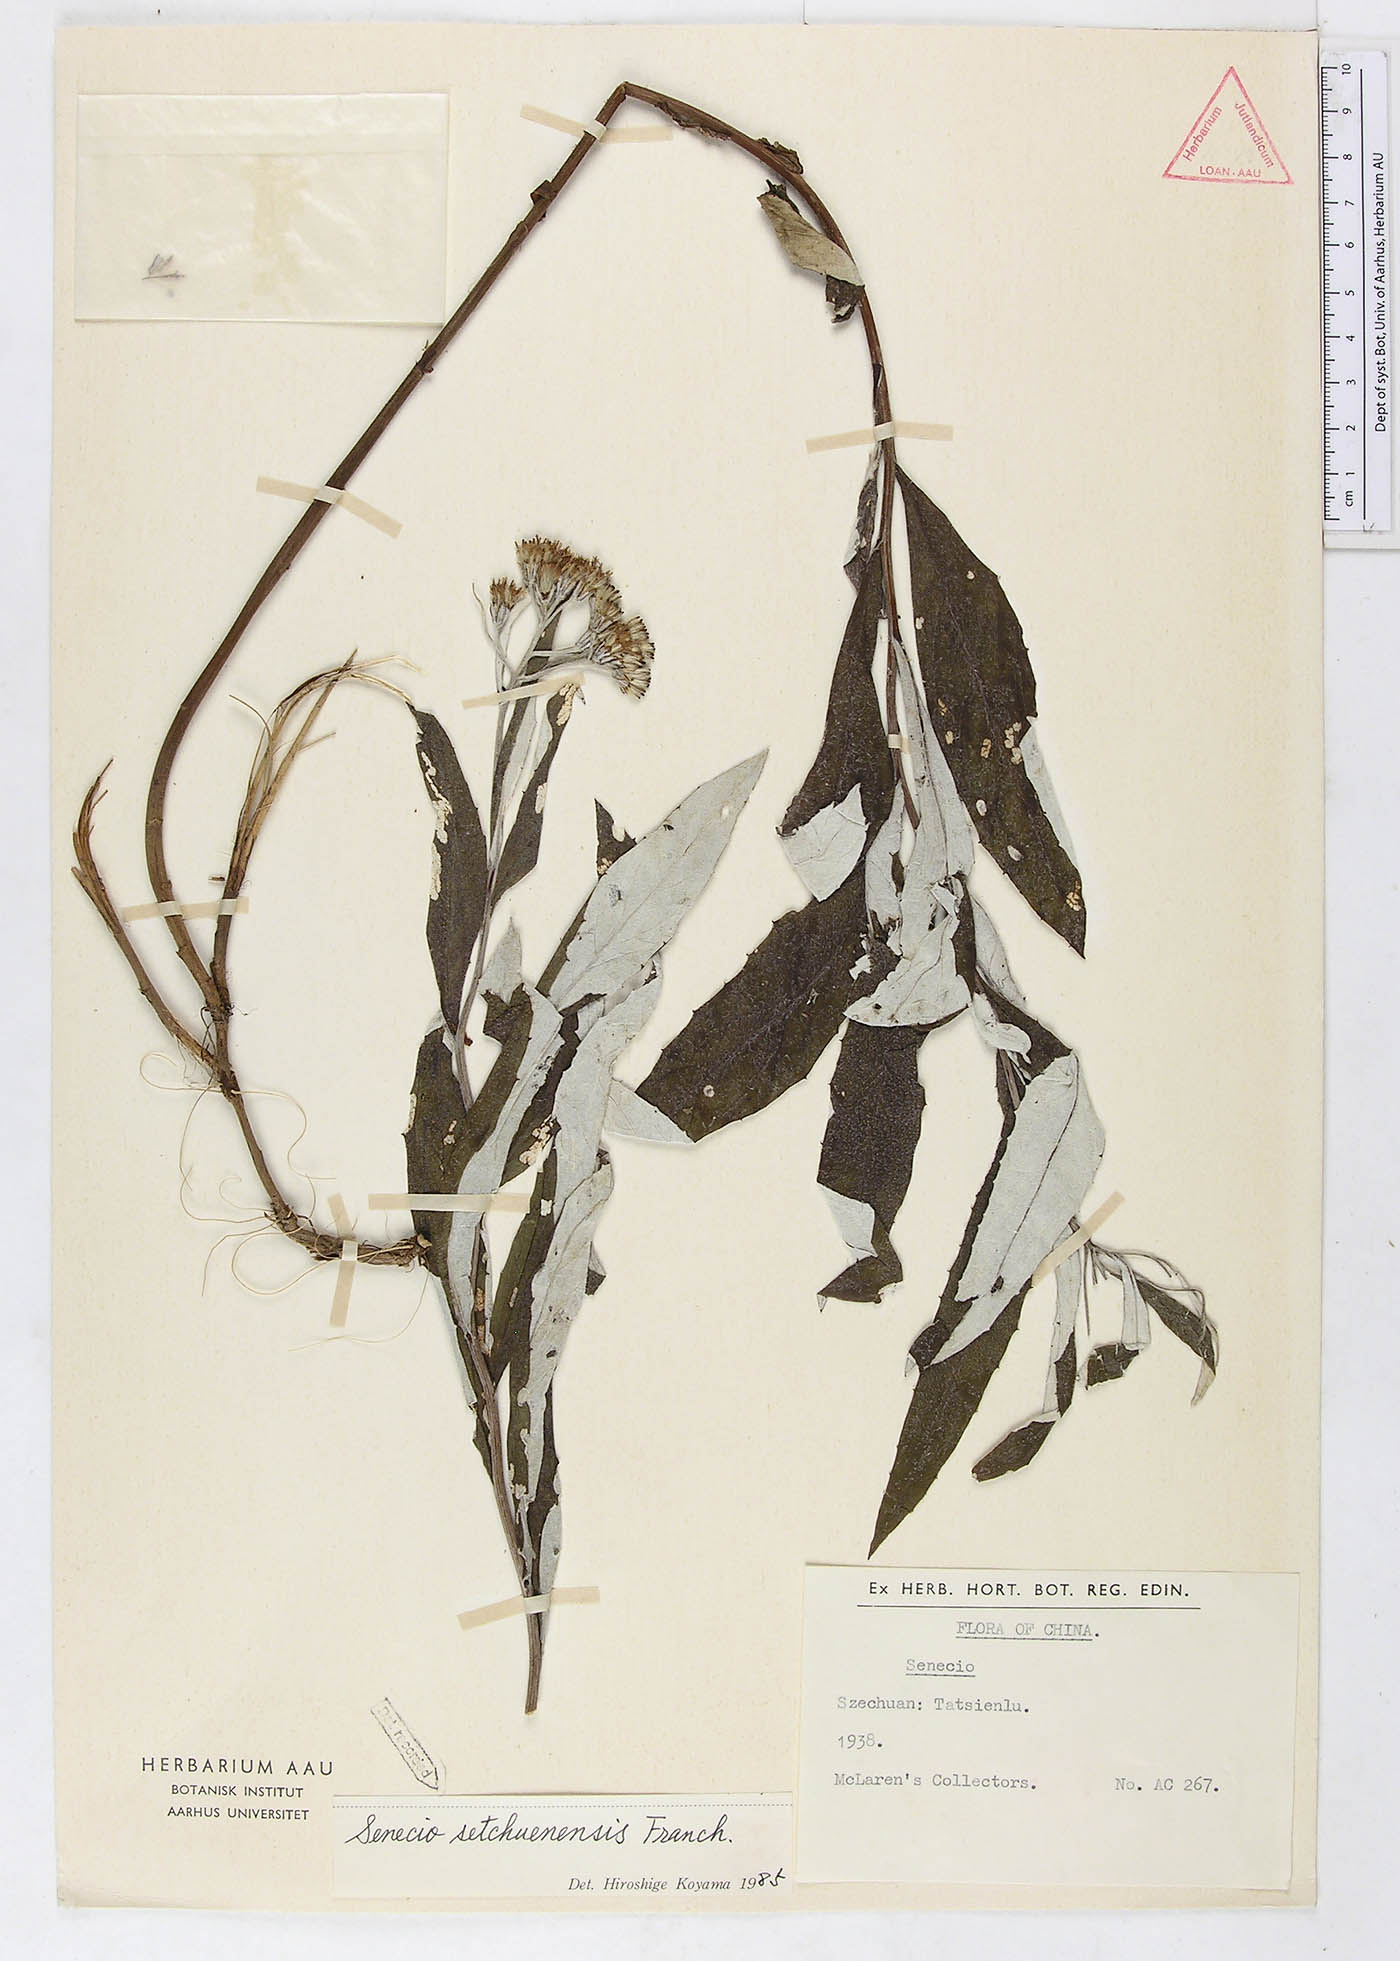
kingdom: Plantae
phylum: Tracheophyta
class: Magnoliopsida
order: Asterales
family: Asteraceae
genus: Synotis
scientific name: Synotis setchuenensis
